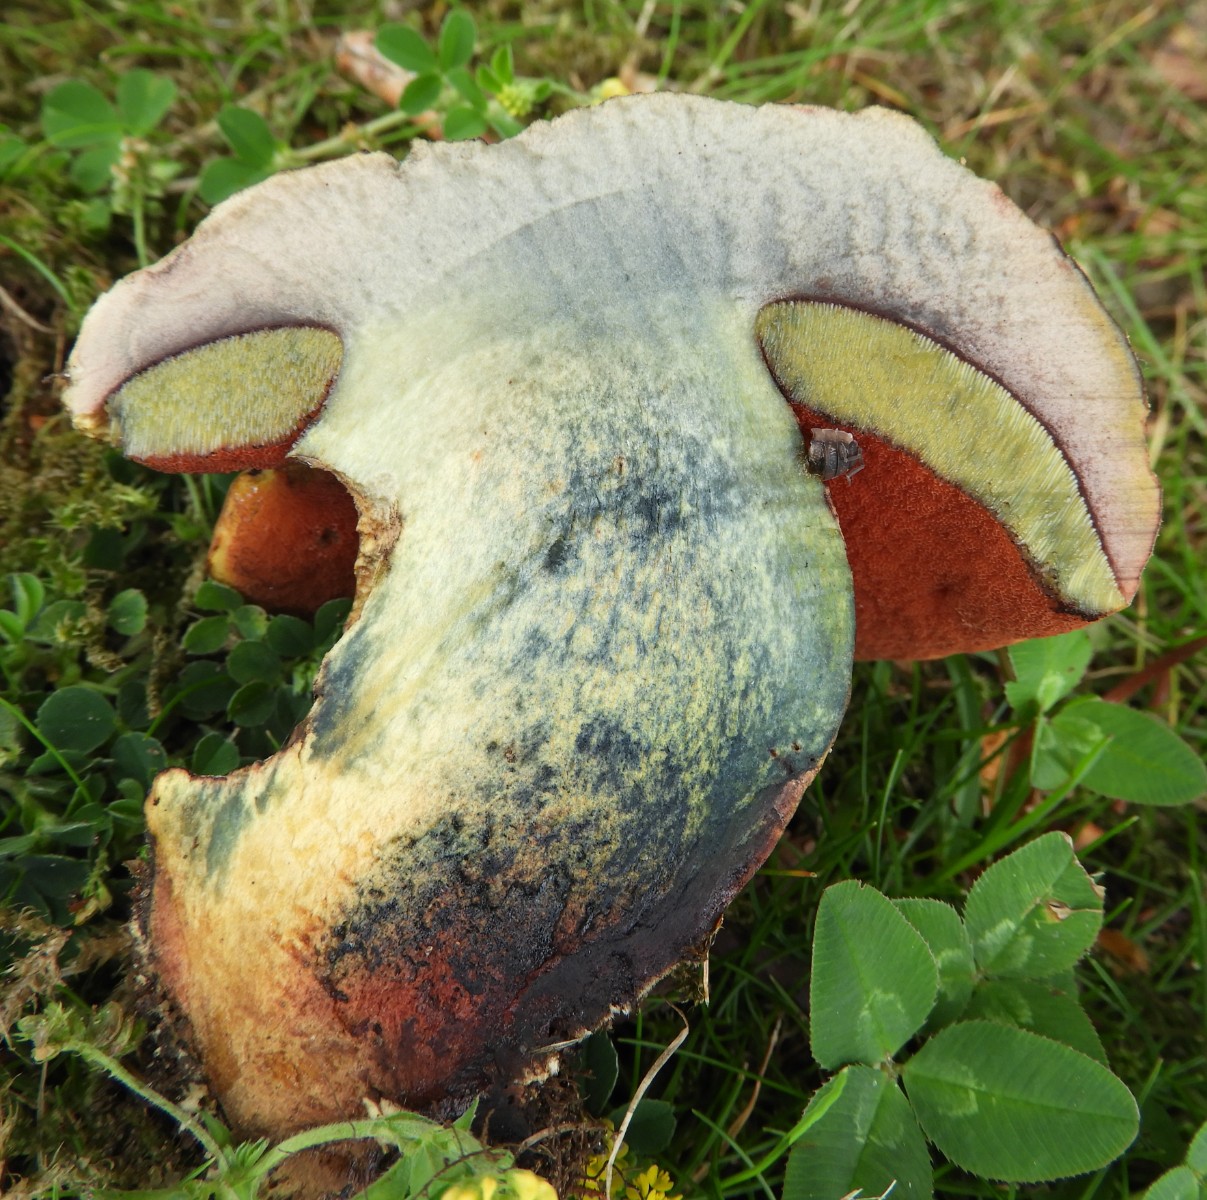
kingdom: Fungi
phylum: Basidiomycota
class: Agaricomycetes
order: Boletales
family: Boletaceae
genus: Suillellus
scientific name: Suillellus luridus
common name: netstokket indigorørhat
